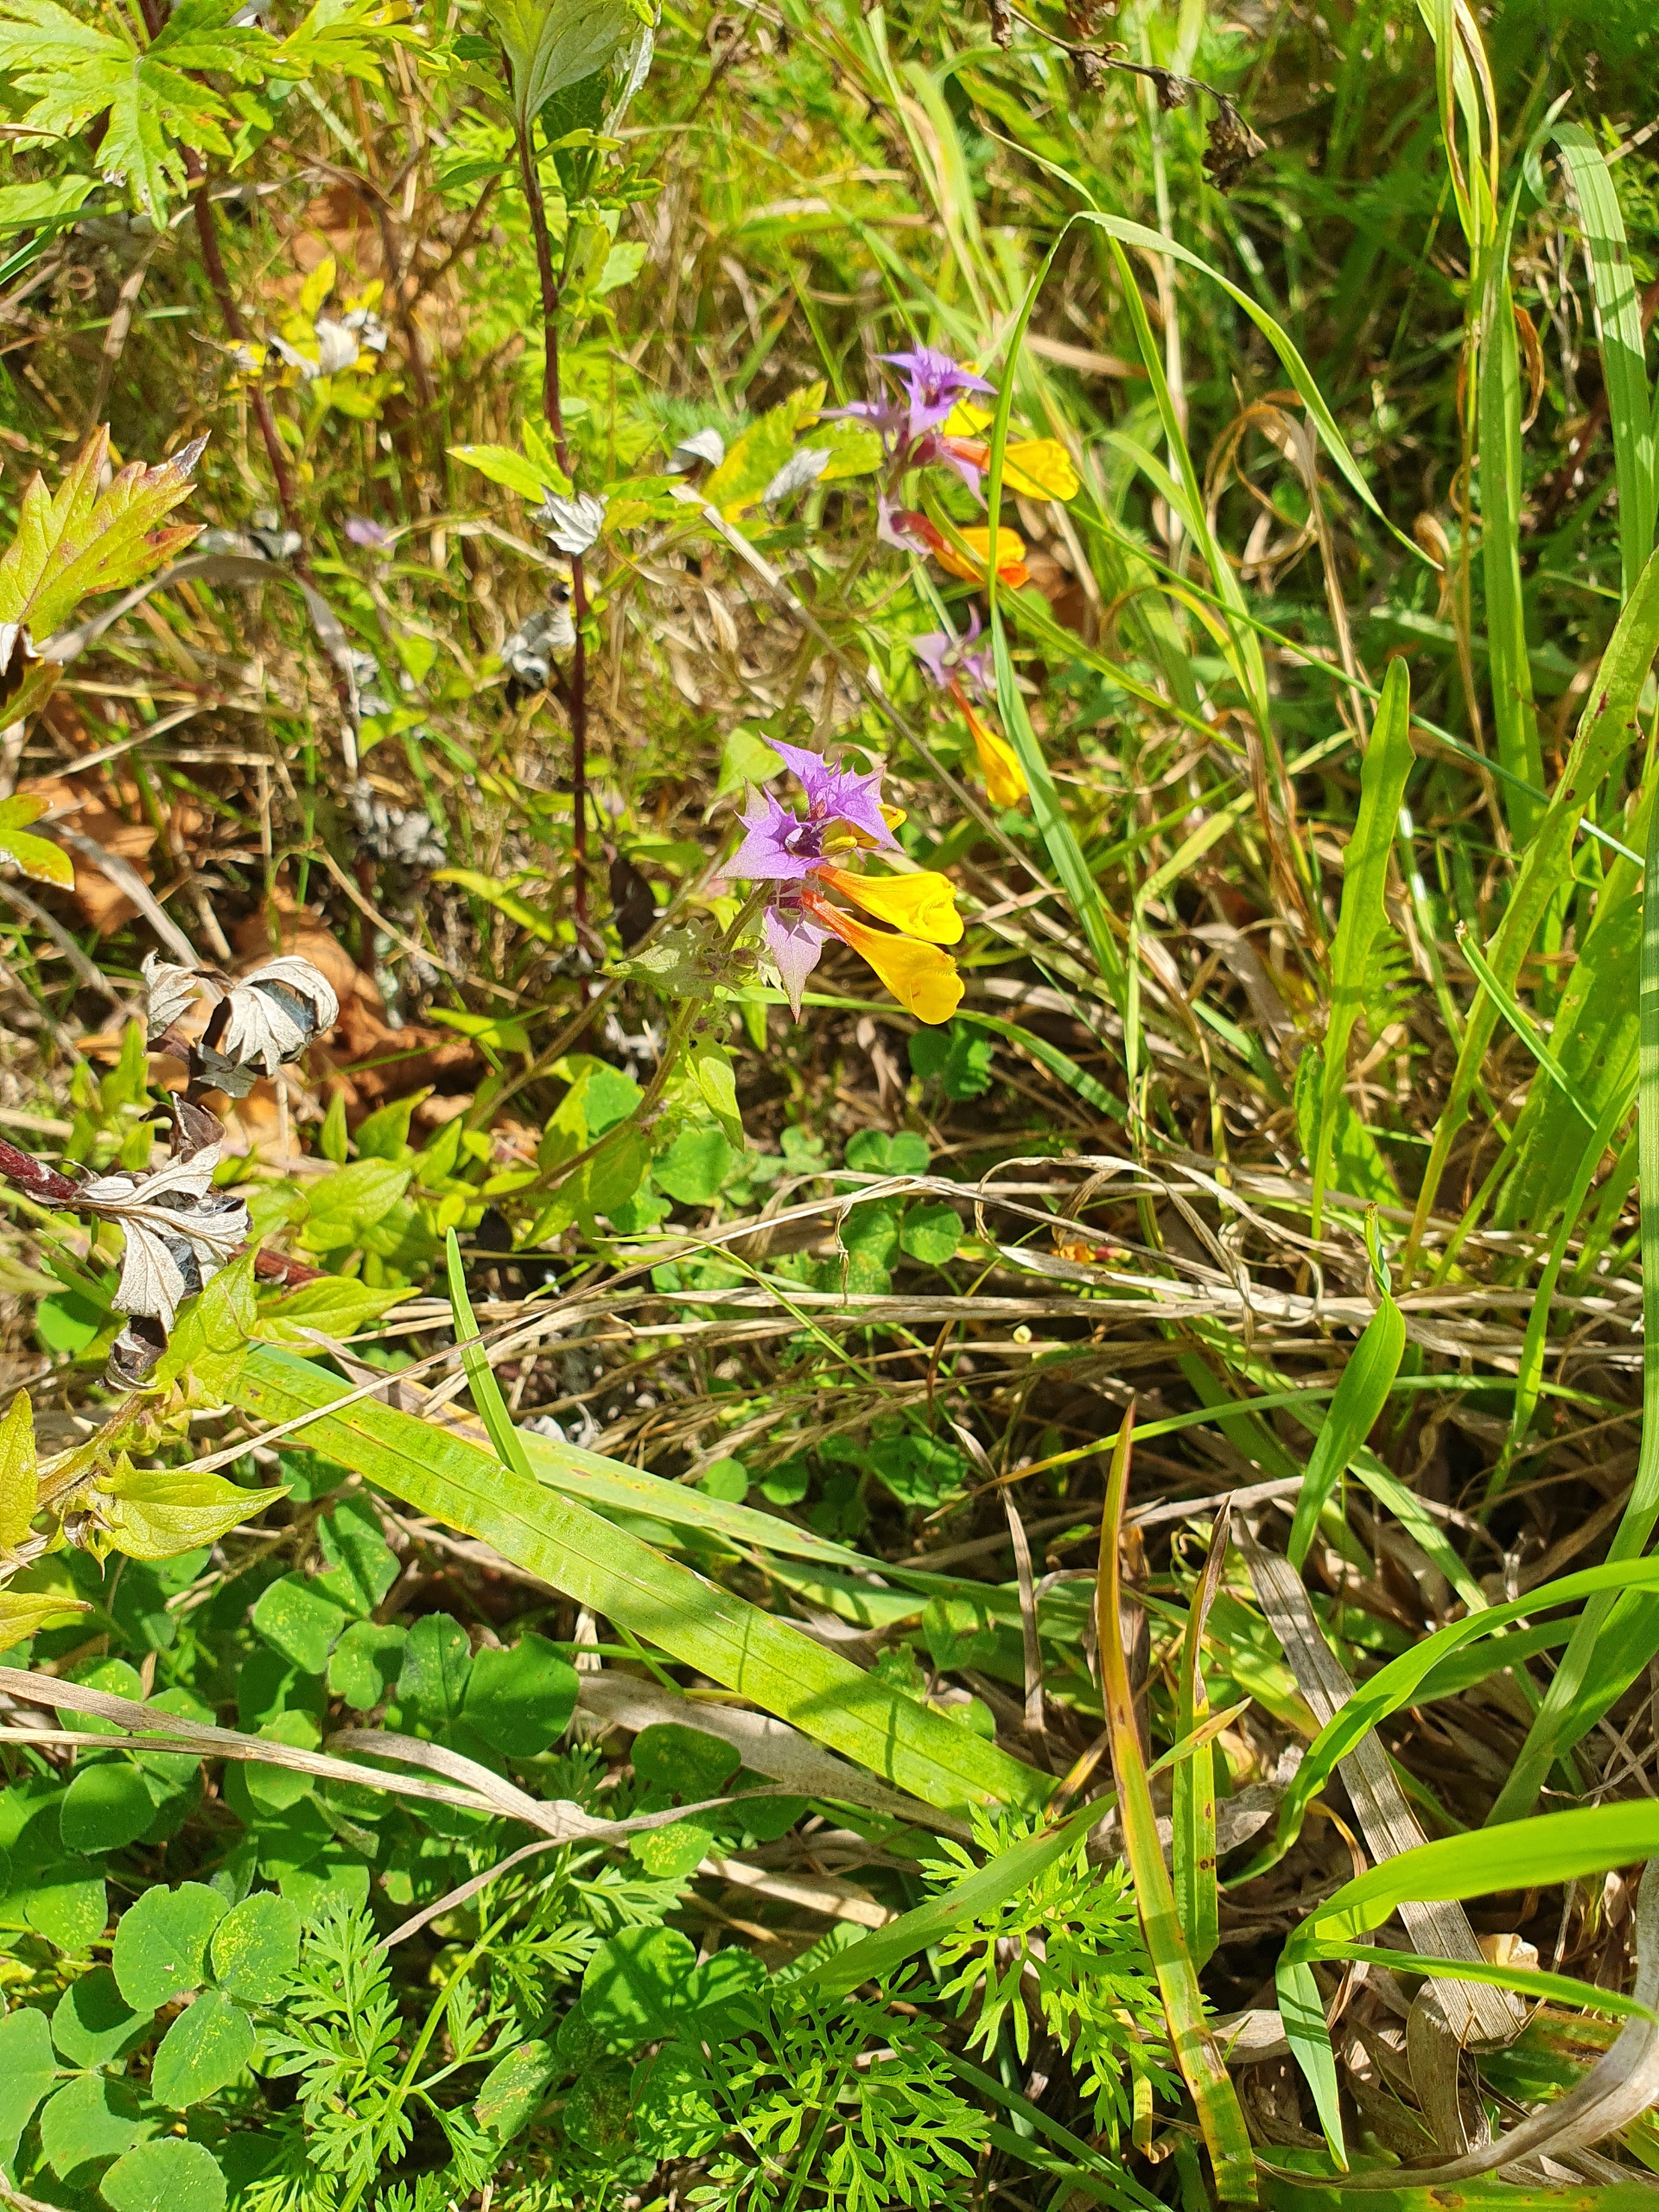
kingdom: Plantae
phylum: Tracheophyta
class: Magnoliopsida
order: Lamiales
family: Orobanchaceae
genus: Melampyrum
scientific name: Melampyrum nemorosum
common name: Blåtoppet kohvede
